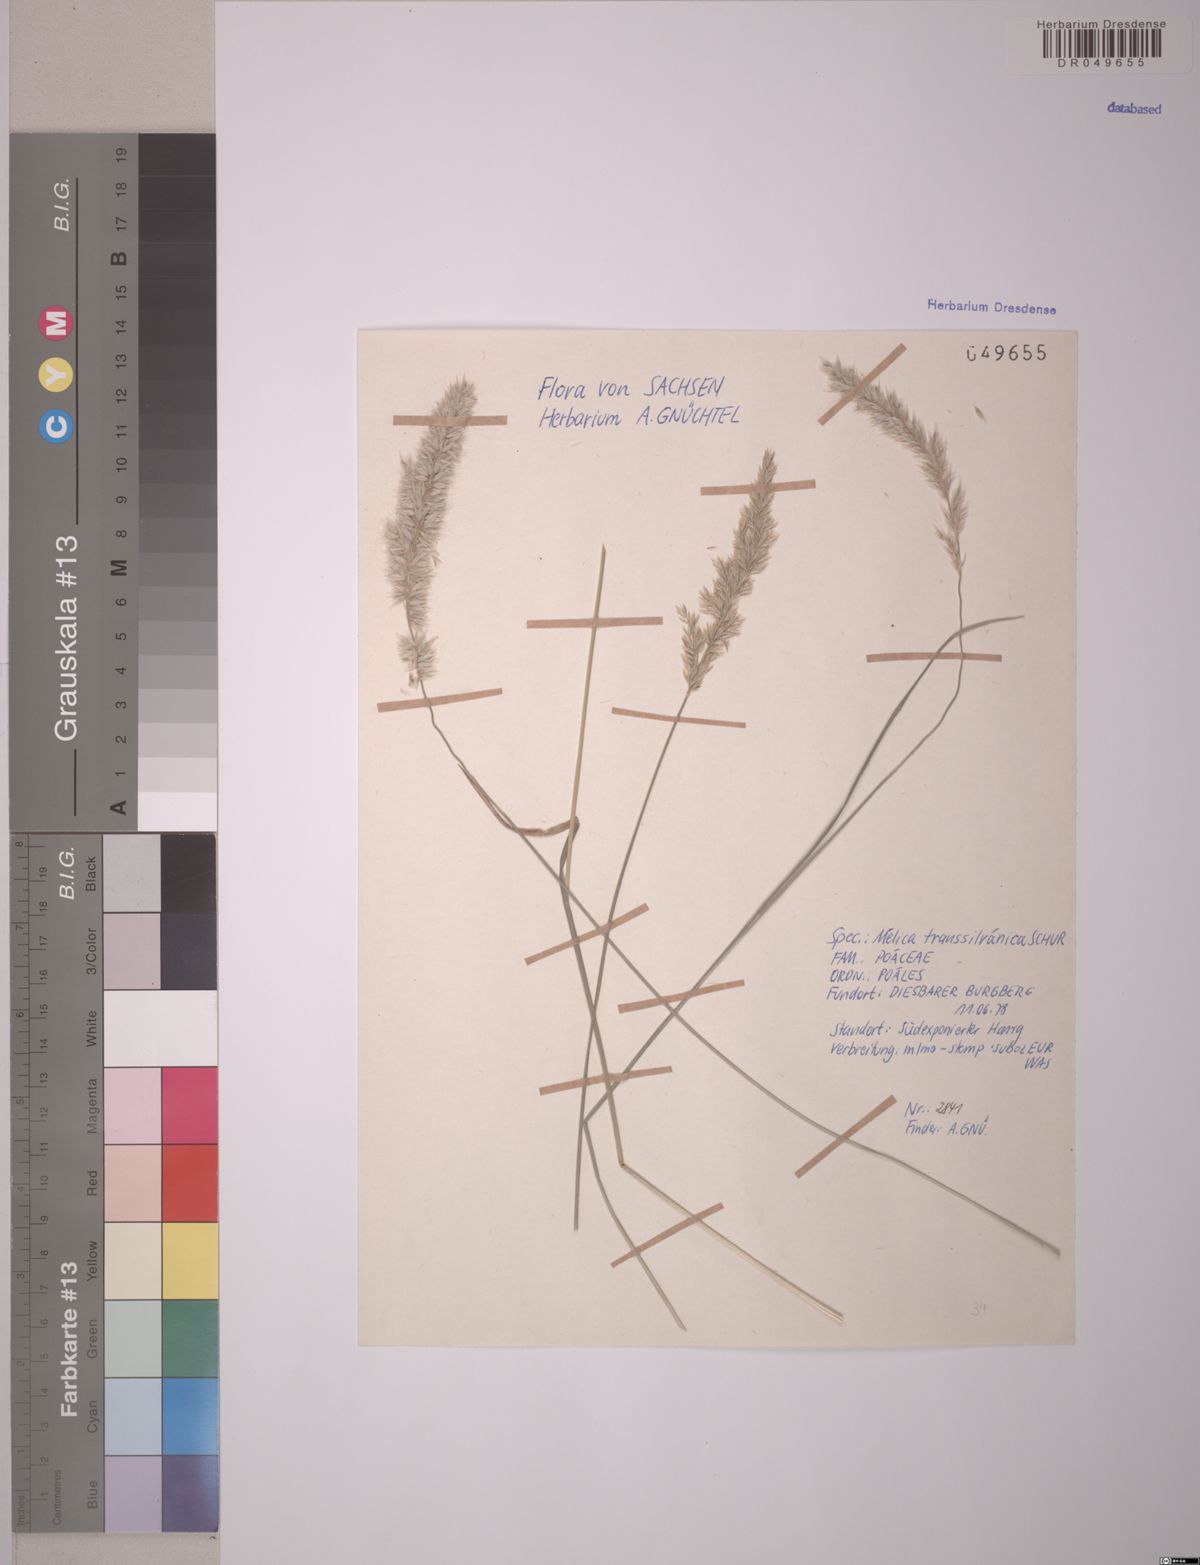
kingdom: Plantae
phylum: Tracheophyta
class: Liliopsida
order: Poales
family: Poaceae
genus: Melica
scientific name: Melica transsilvanica
